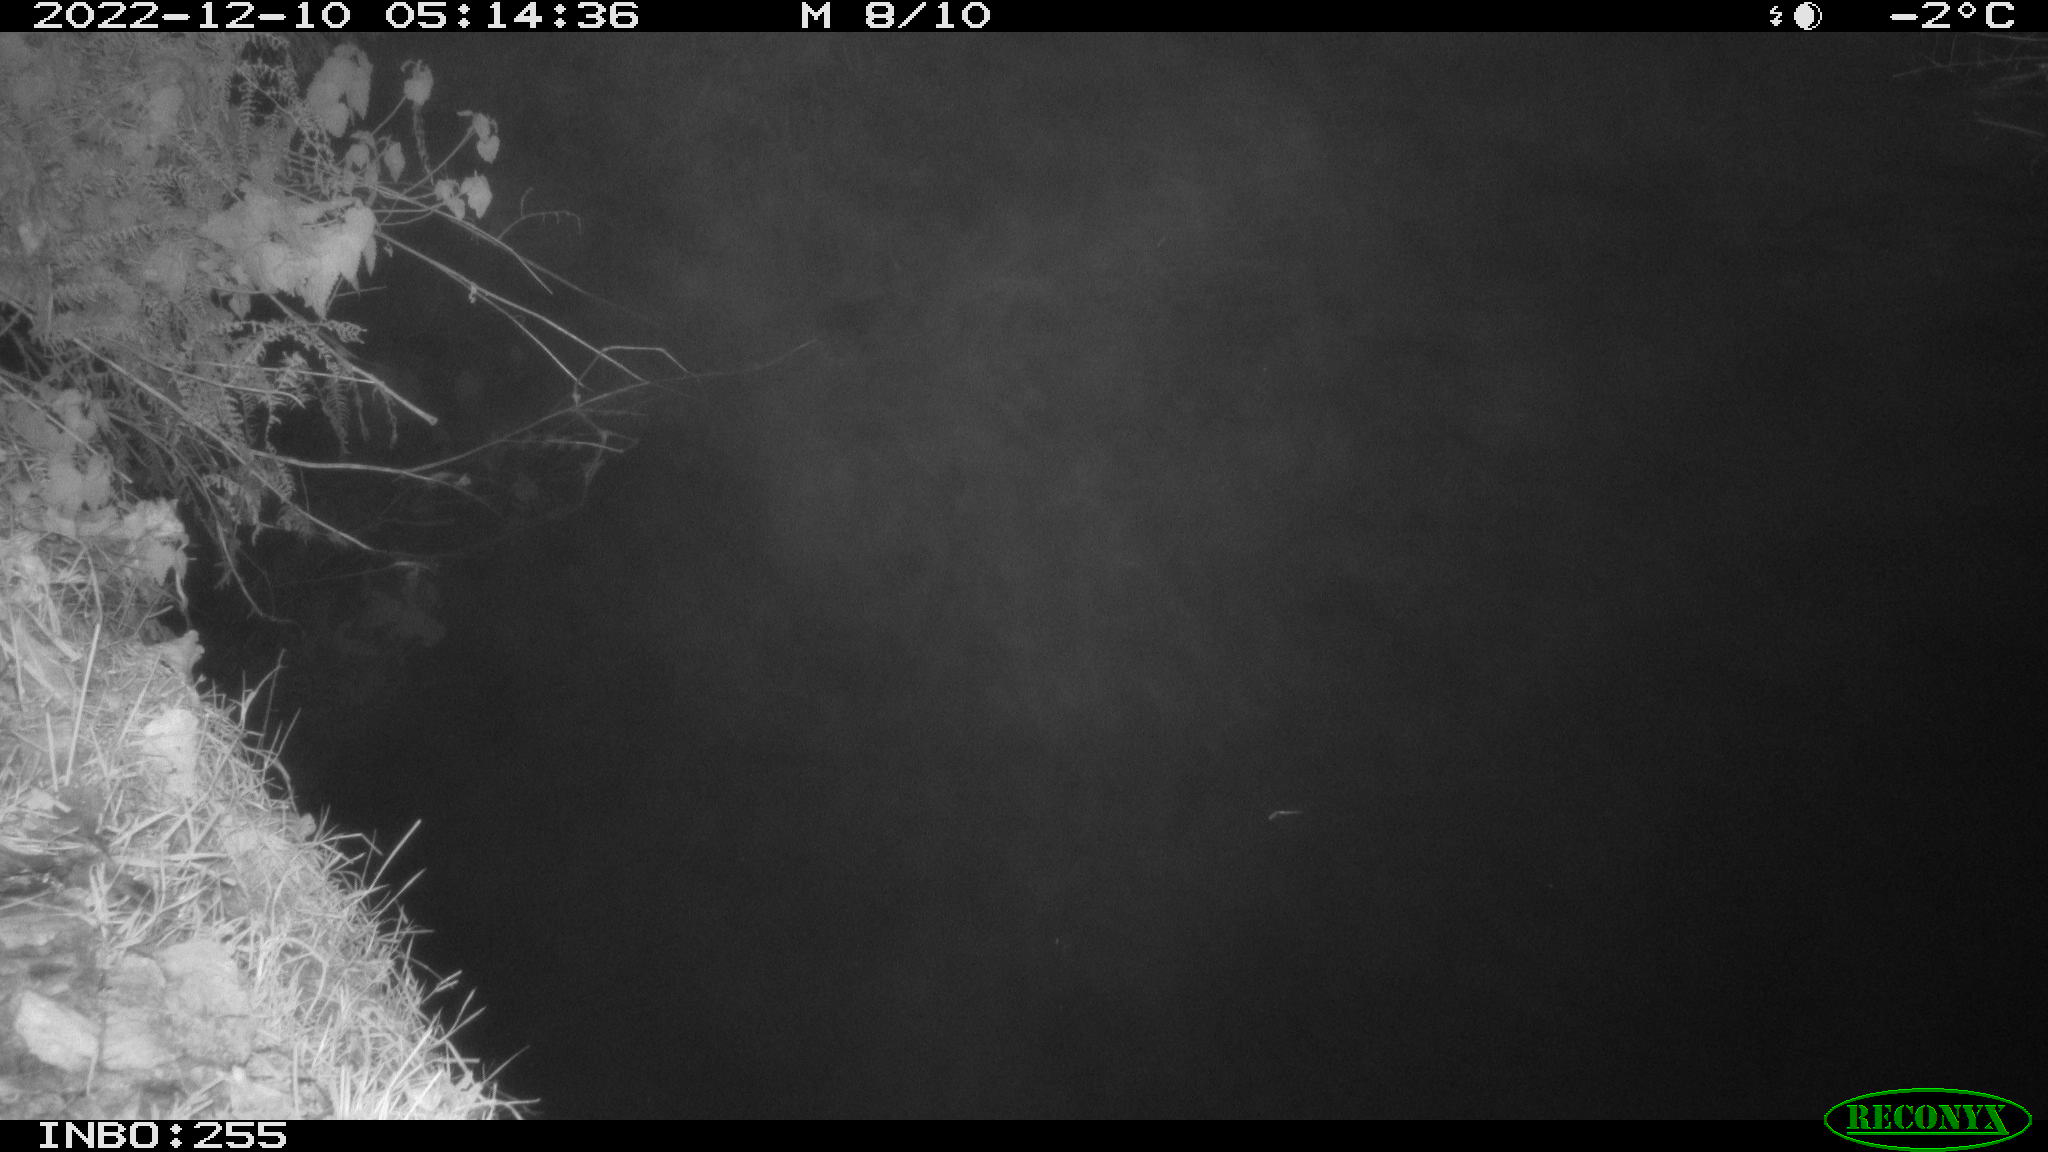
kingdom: Animalia
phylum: Chordata
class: Mammalia
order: Rodentia
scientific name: Rodentia
